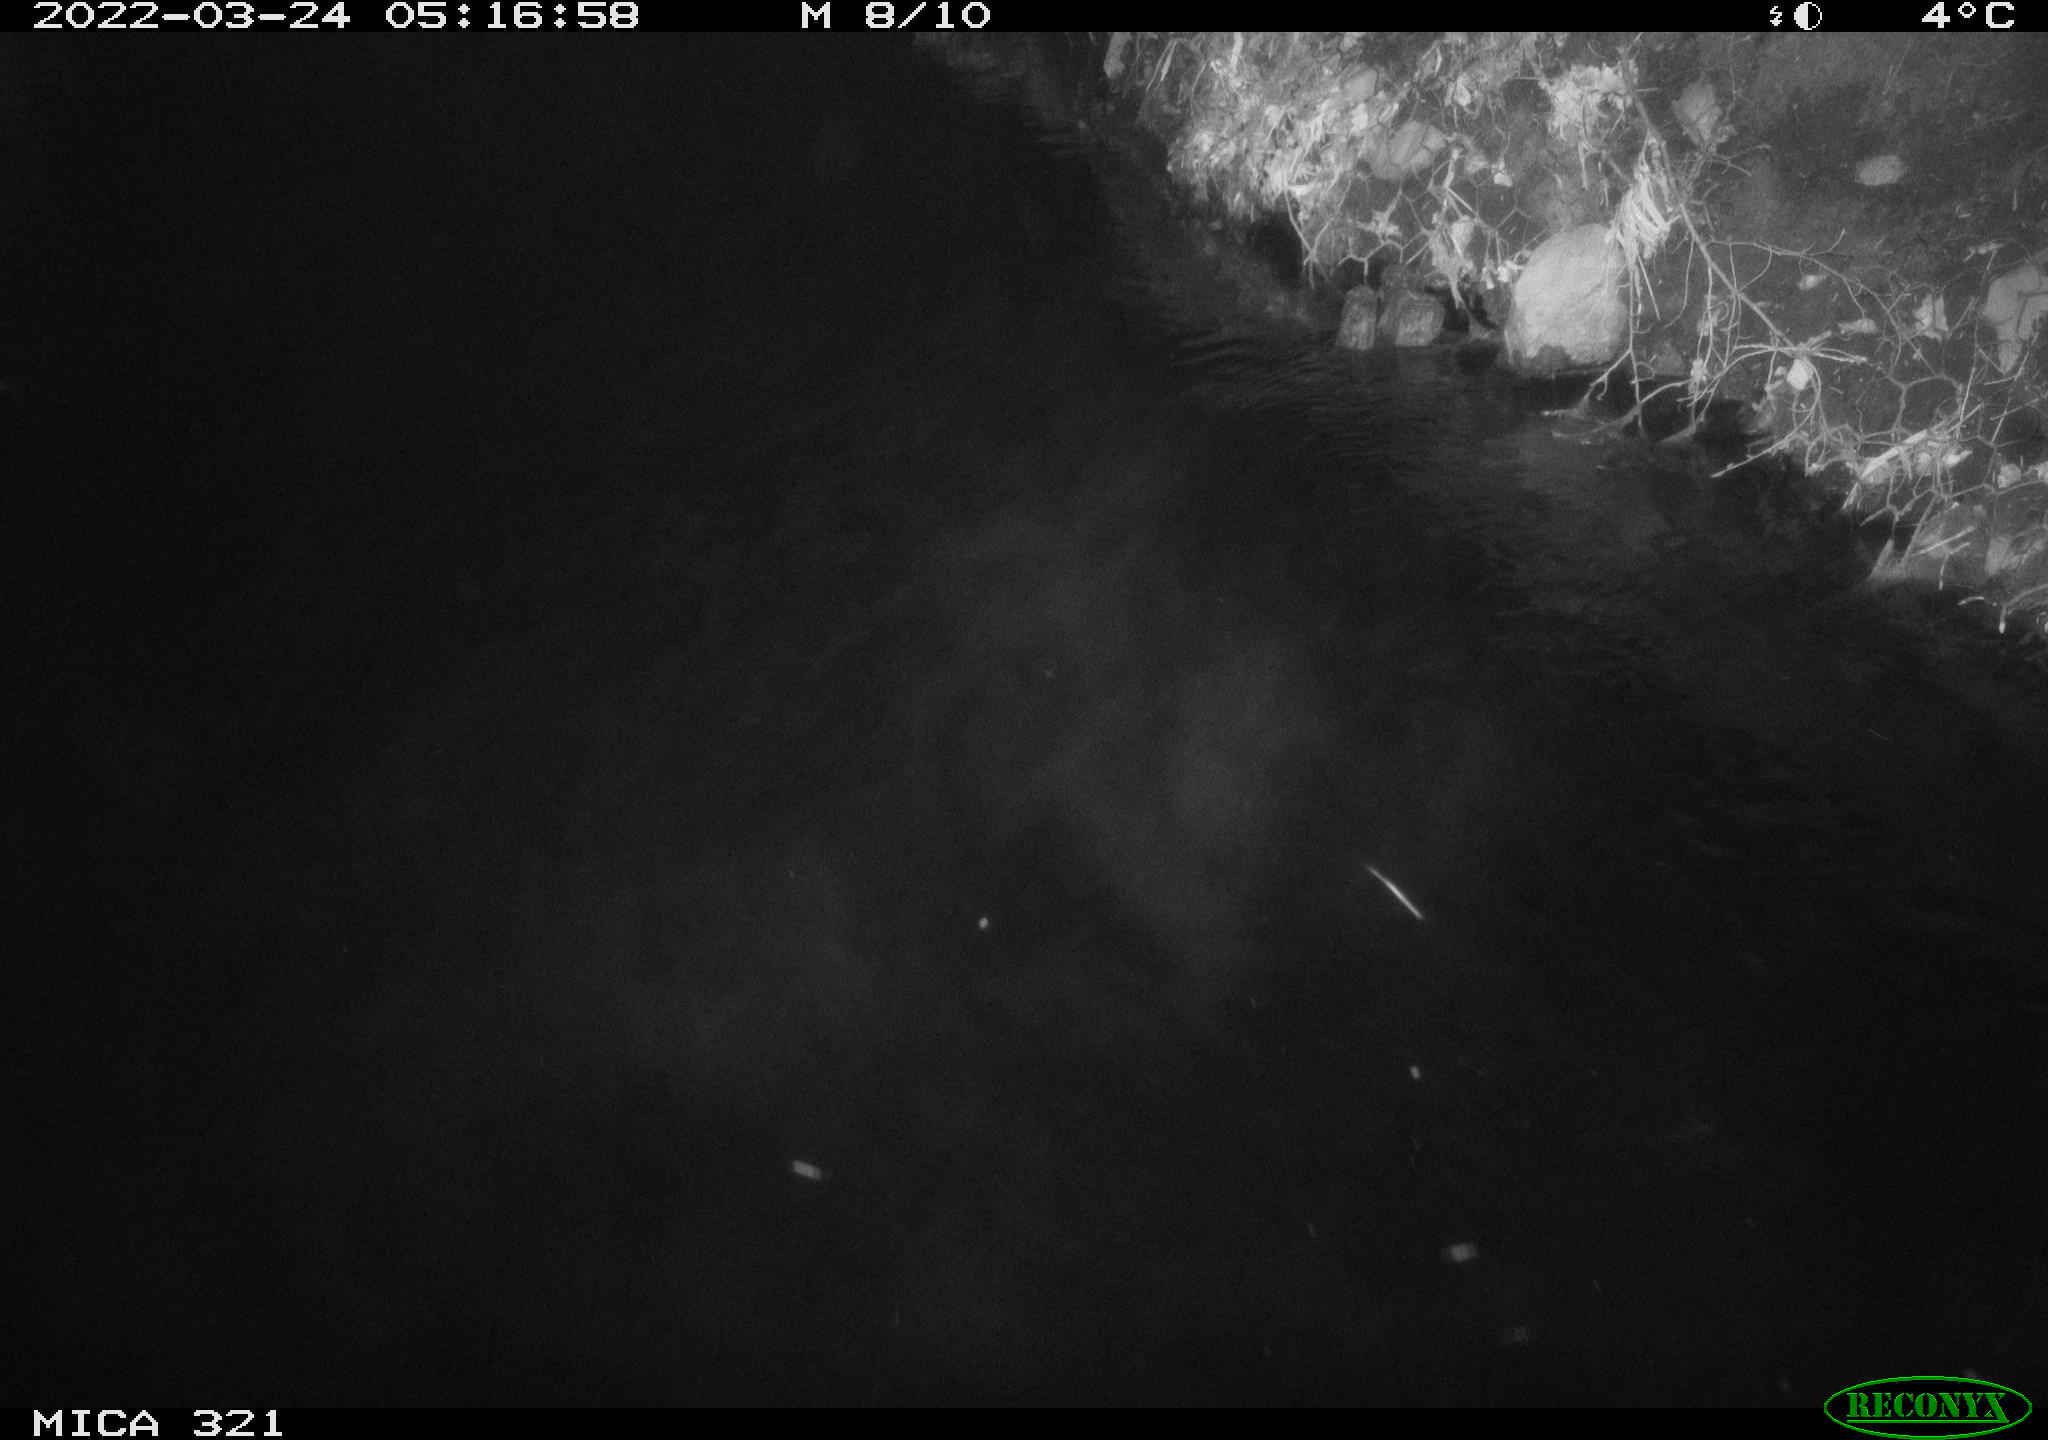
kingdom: Animalia
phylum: Chordata
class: Aves
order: Anseriformes
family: Anatidae
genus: Anas
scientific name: Anas platyrhynchos
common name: Mallard
